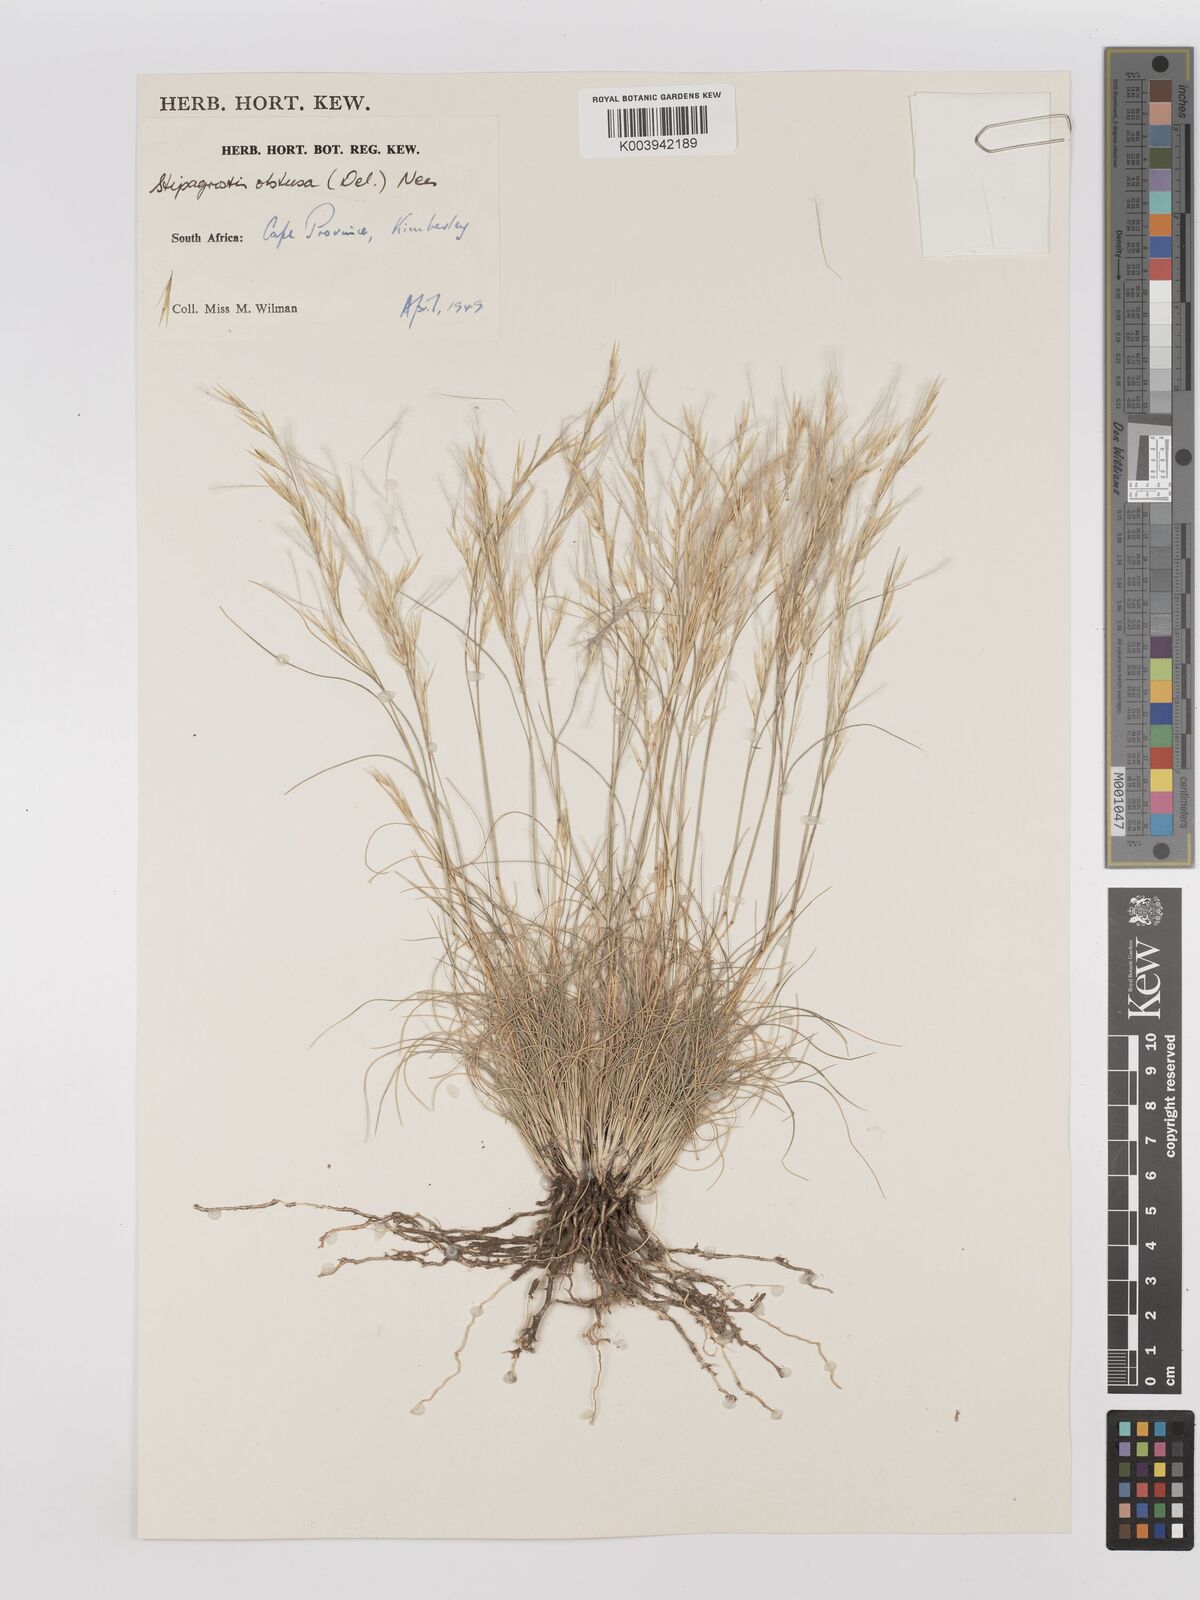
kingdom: Plantae
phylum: Tracheophyta
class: Liliopsida
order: Poales
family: Poaceae
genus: Stipagrostis
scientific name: Stipagrostis obtusa
